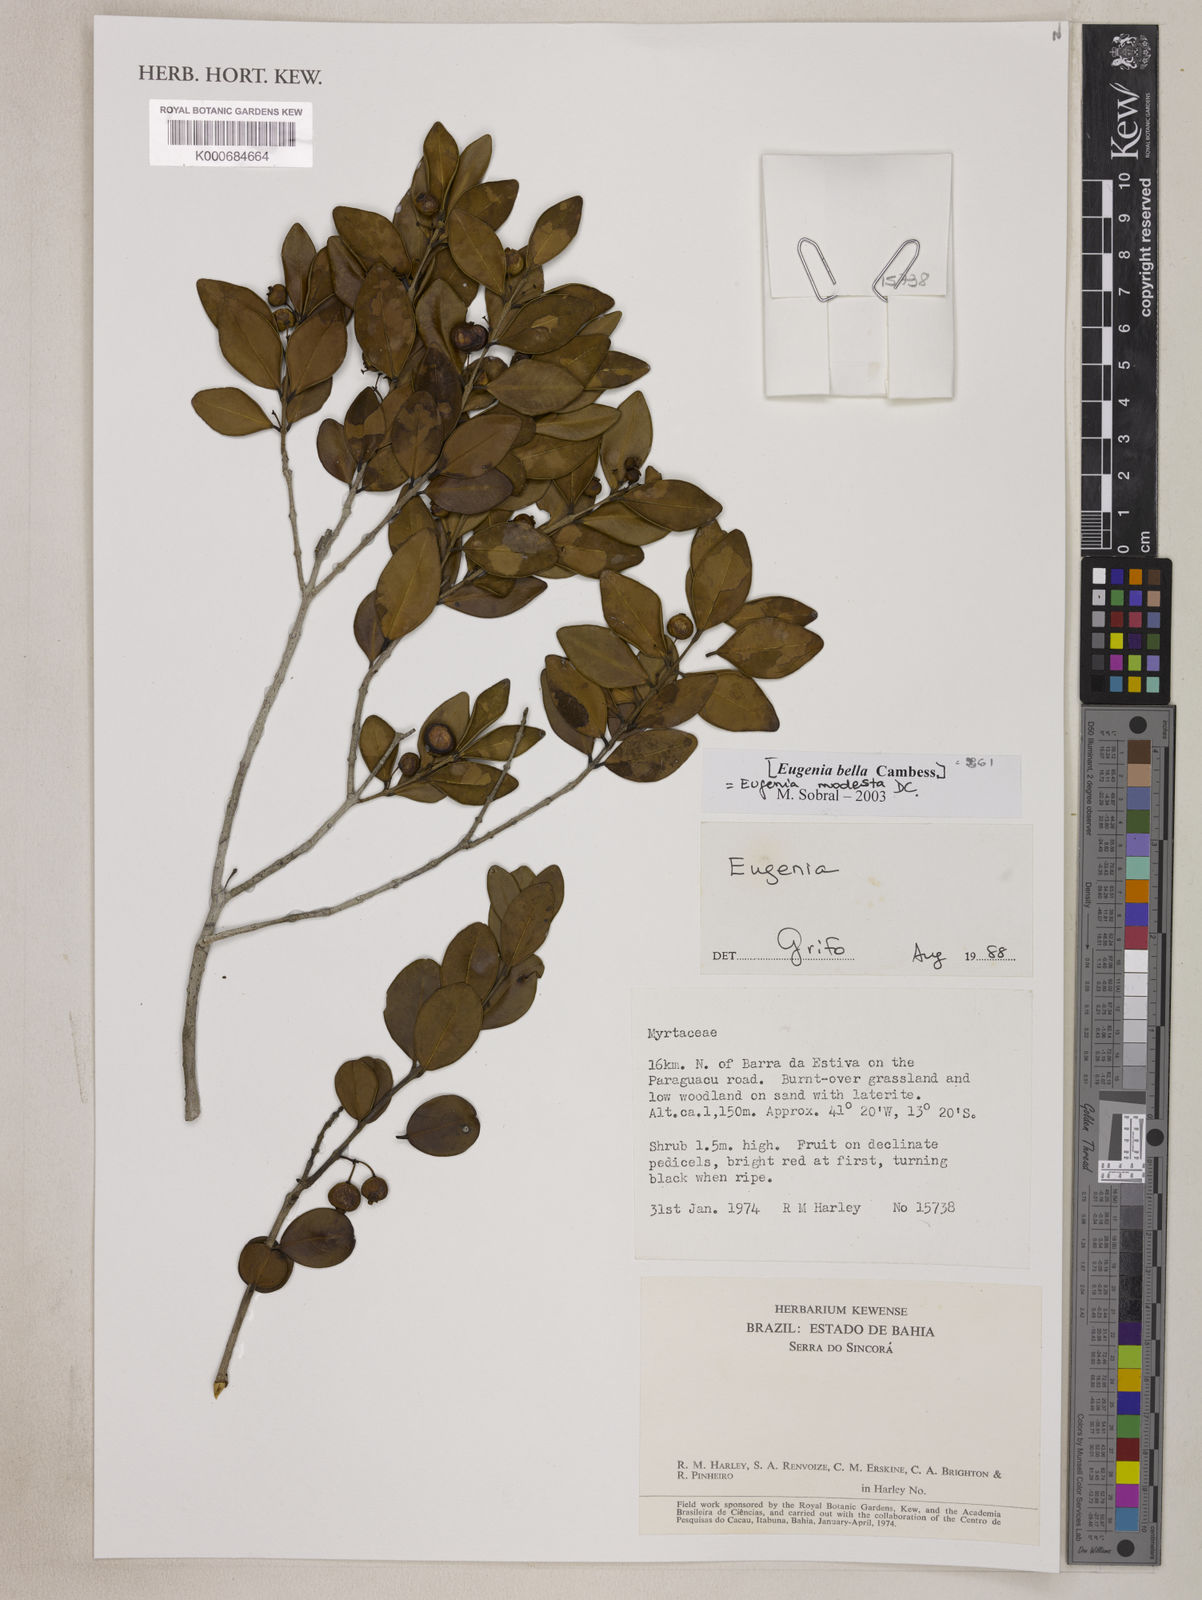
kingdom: Plantae
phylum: Tracheophyta
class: Magnoliopsida
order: Myrtales
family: Myrtaceae
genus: Eugenia
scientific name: Eugenia modesta
